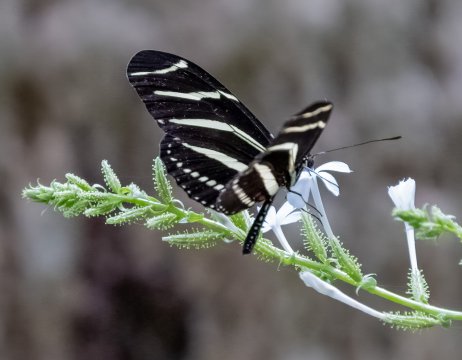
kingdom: Animalia
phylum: Arthropoda
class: Insecta
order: Lepidoptera
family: Nymphalidae
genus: Heliconius
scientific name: Heliconius charithonia
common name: Zebra Longwing
